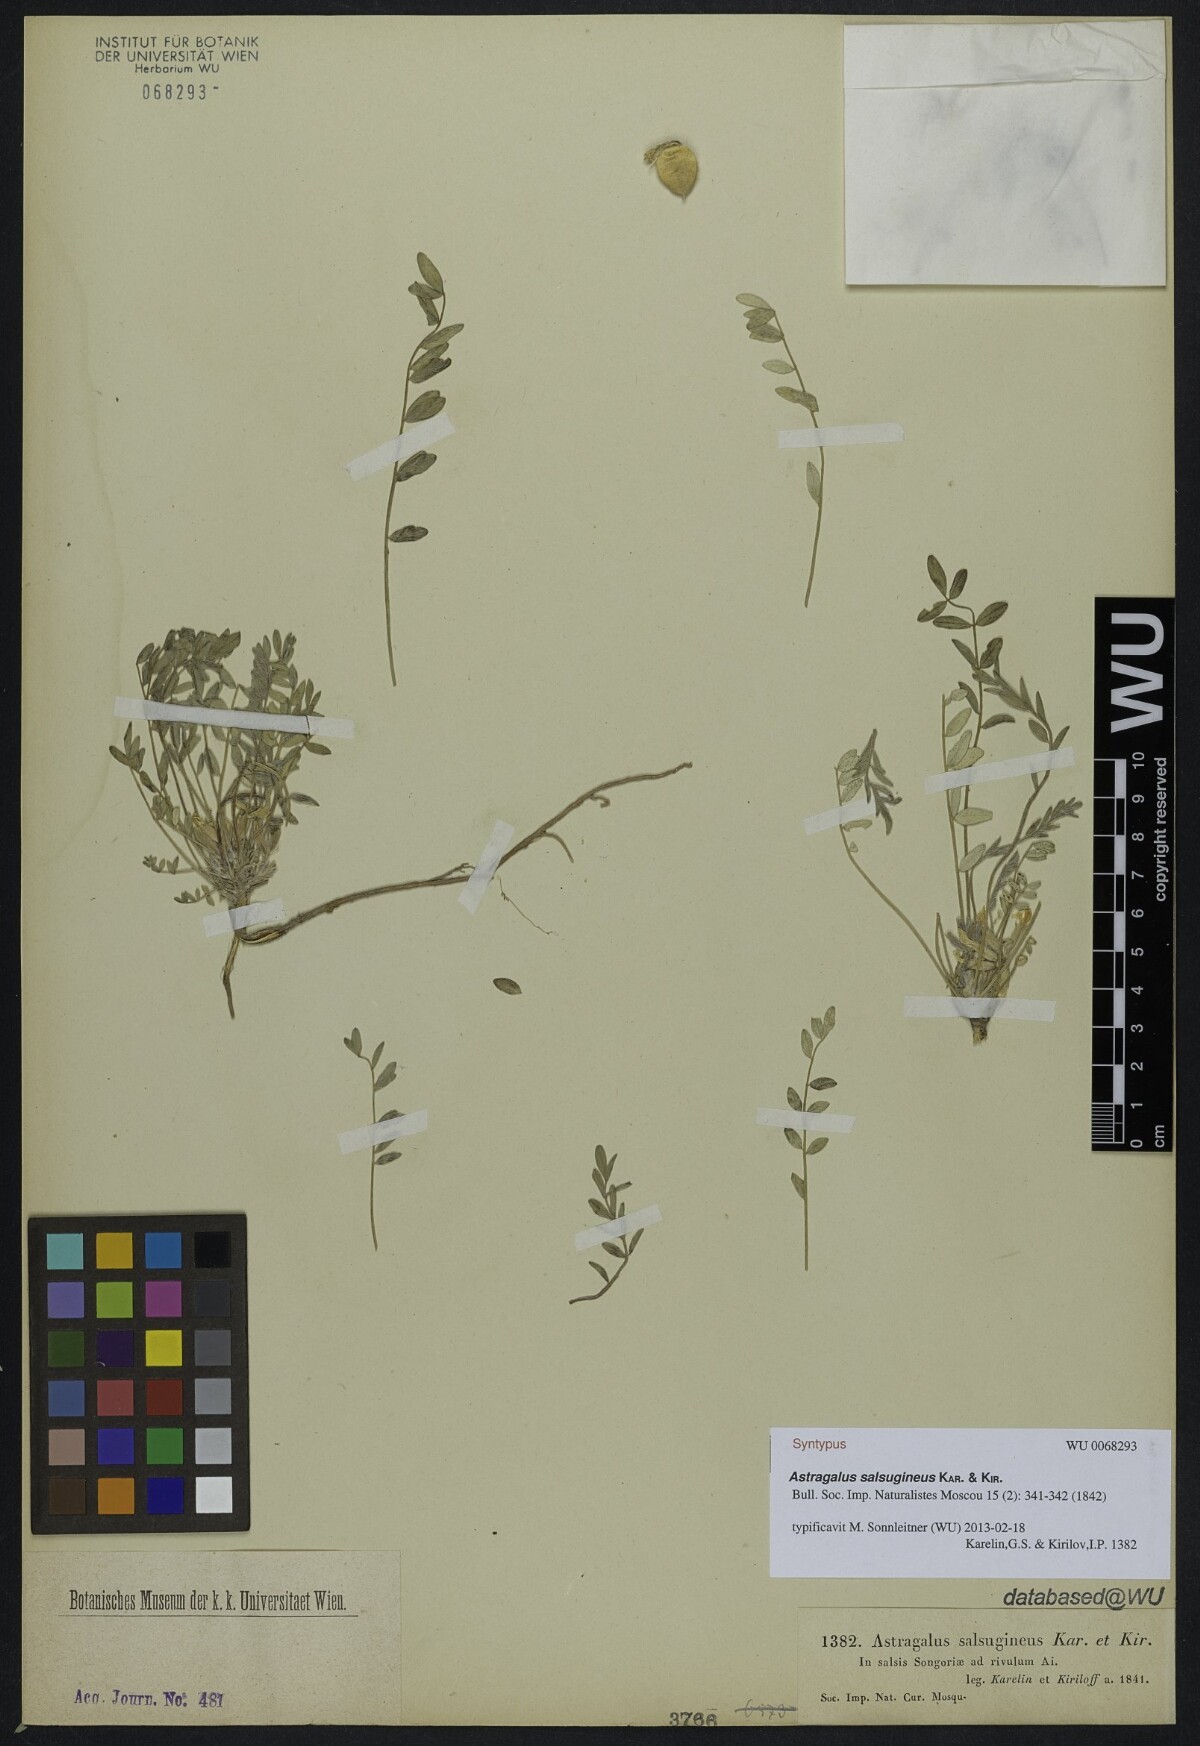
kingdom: Plantae
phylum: Tracheophyta
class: Magnoliopsida
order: Fabales
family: Fabaceae
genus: Astragalus
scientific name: Astragalus salsugineus
